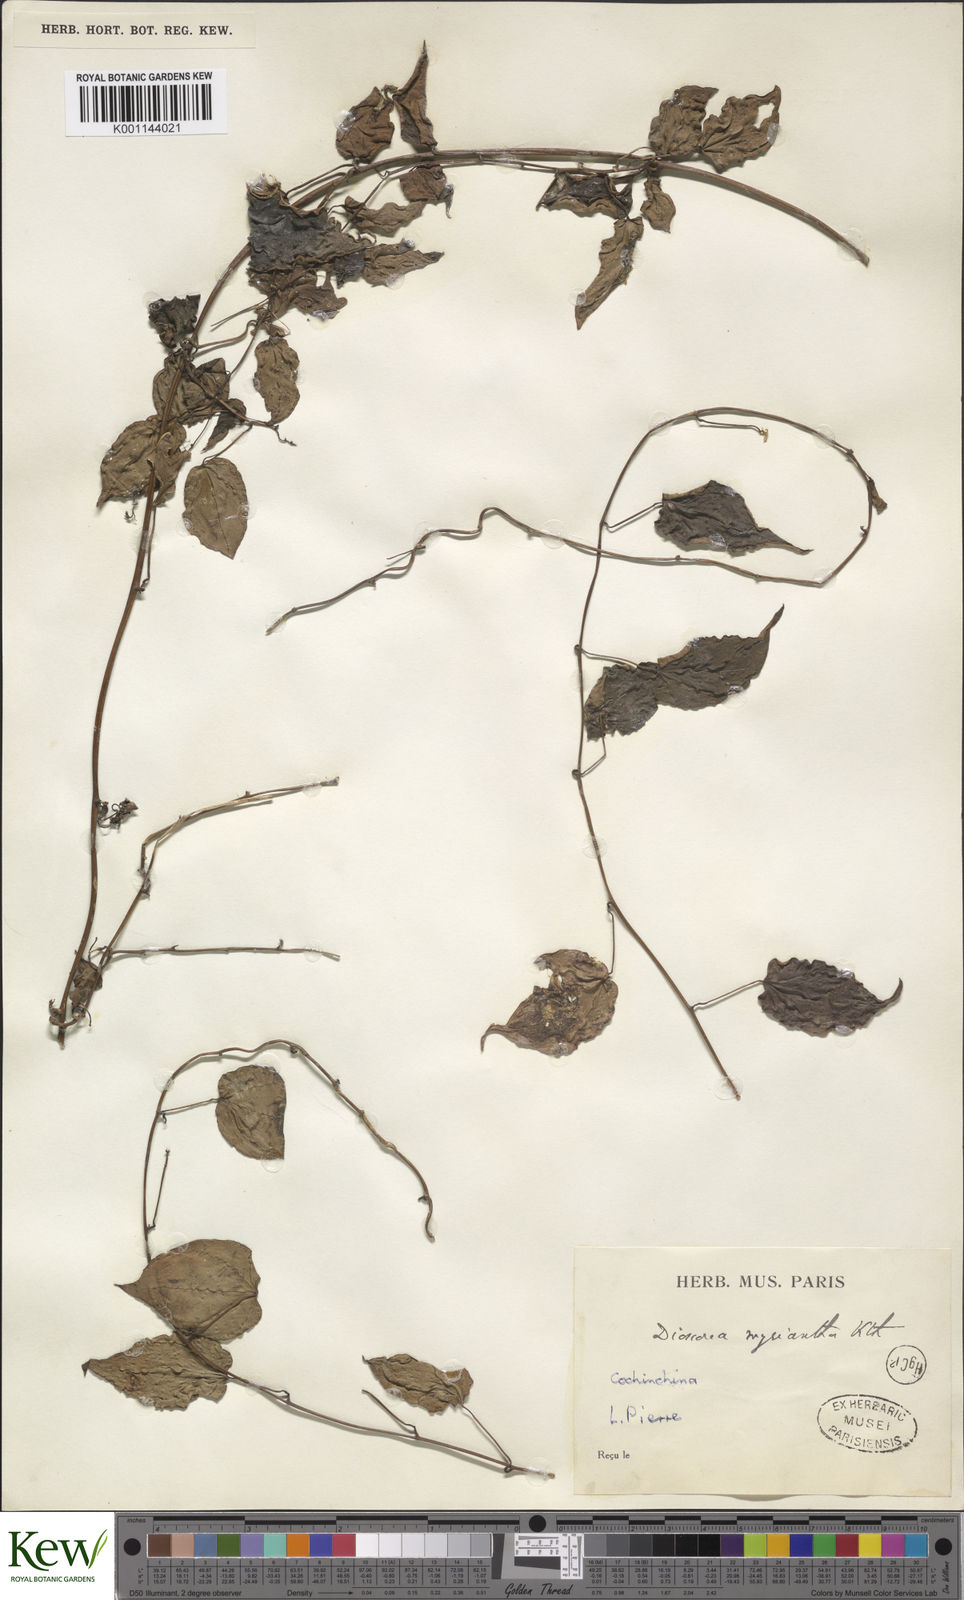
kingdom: Plantae
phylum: Tracheophyta
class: Liliopsida
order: Dioscoreales
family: Dioscoreaceae
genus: Dioscorea
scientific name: Dioscorea hamiltonii
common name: Mountain yam
